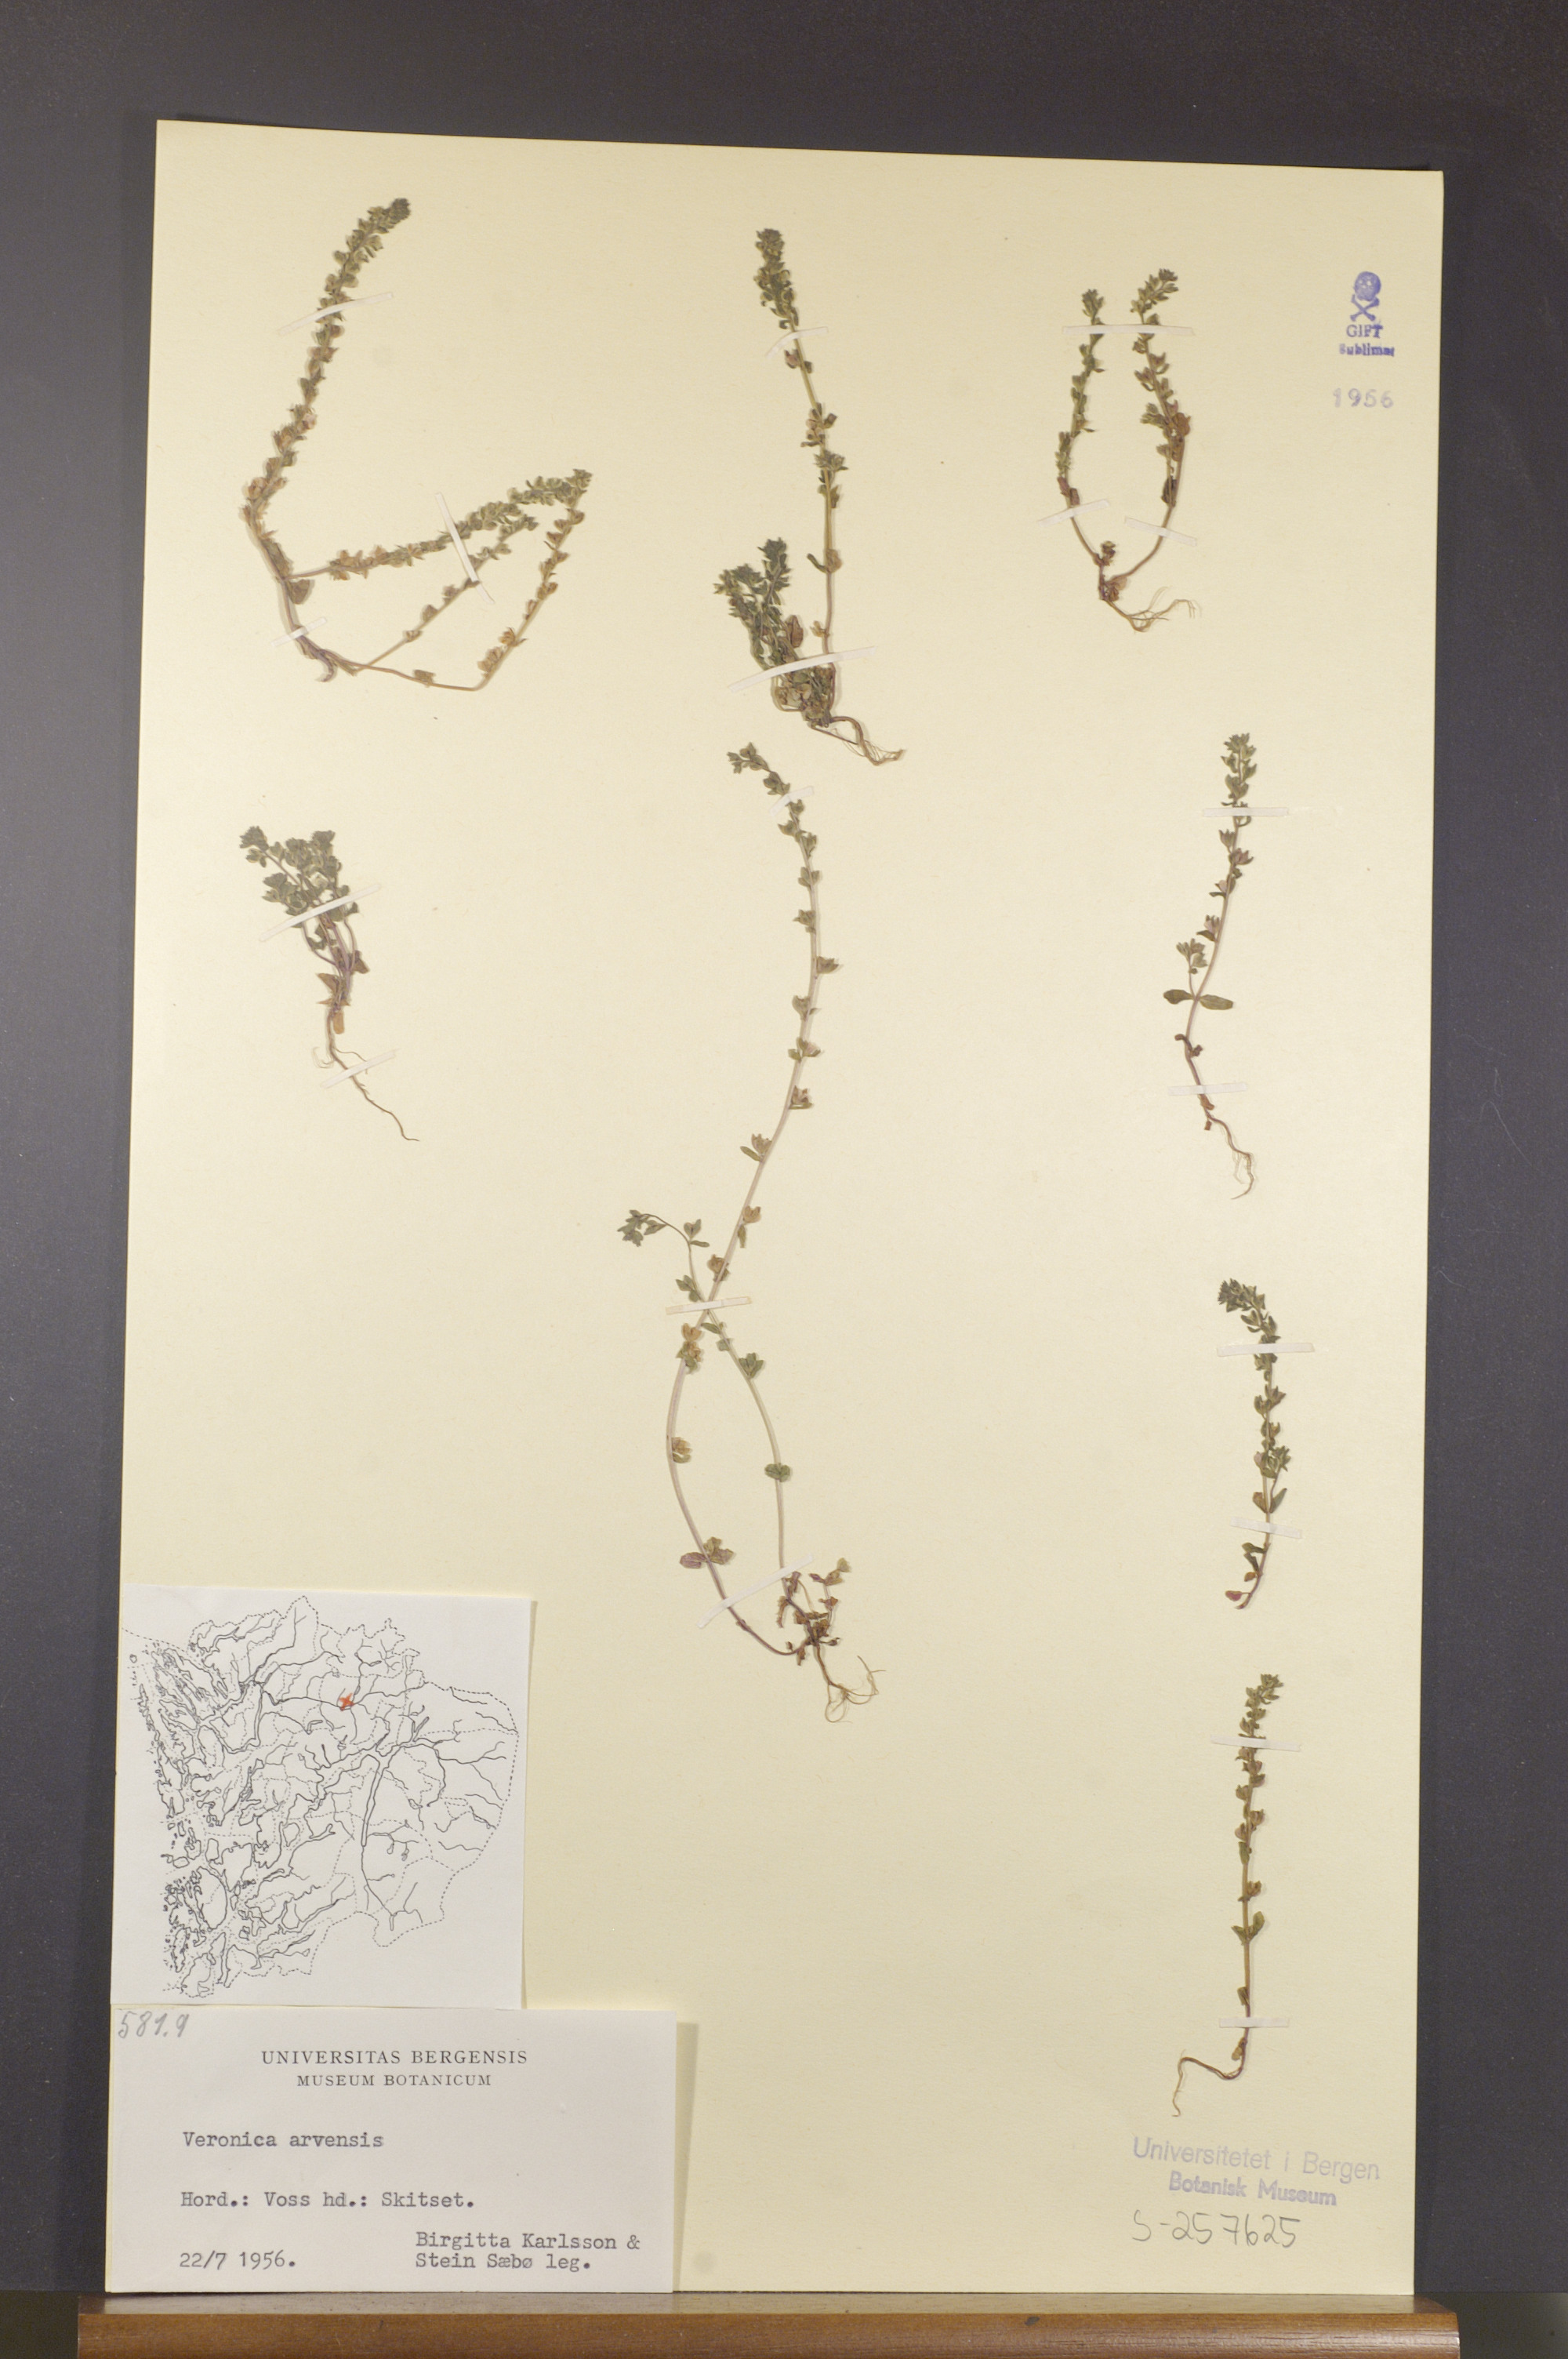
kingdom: Plantae
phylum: Tracheophyta
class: Magnoliopsida
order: Lamiales
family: Plantaginaceae
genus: Veronica
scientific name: Veronica arvensis
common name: Corn speedwell
